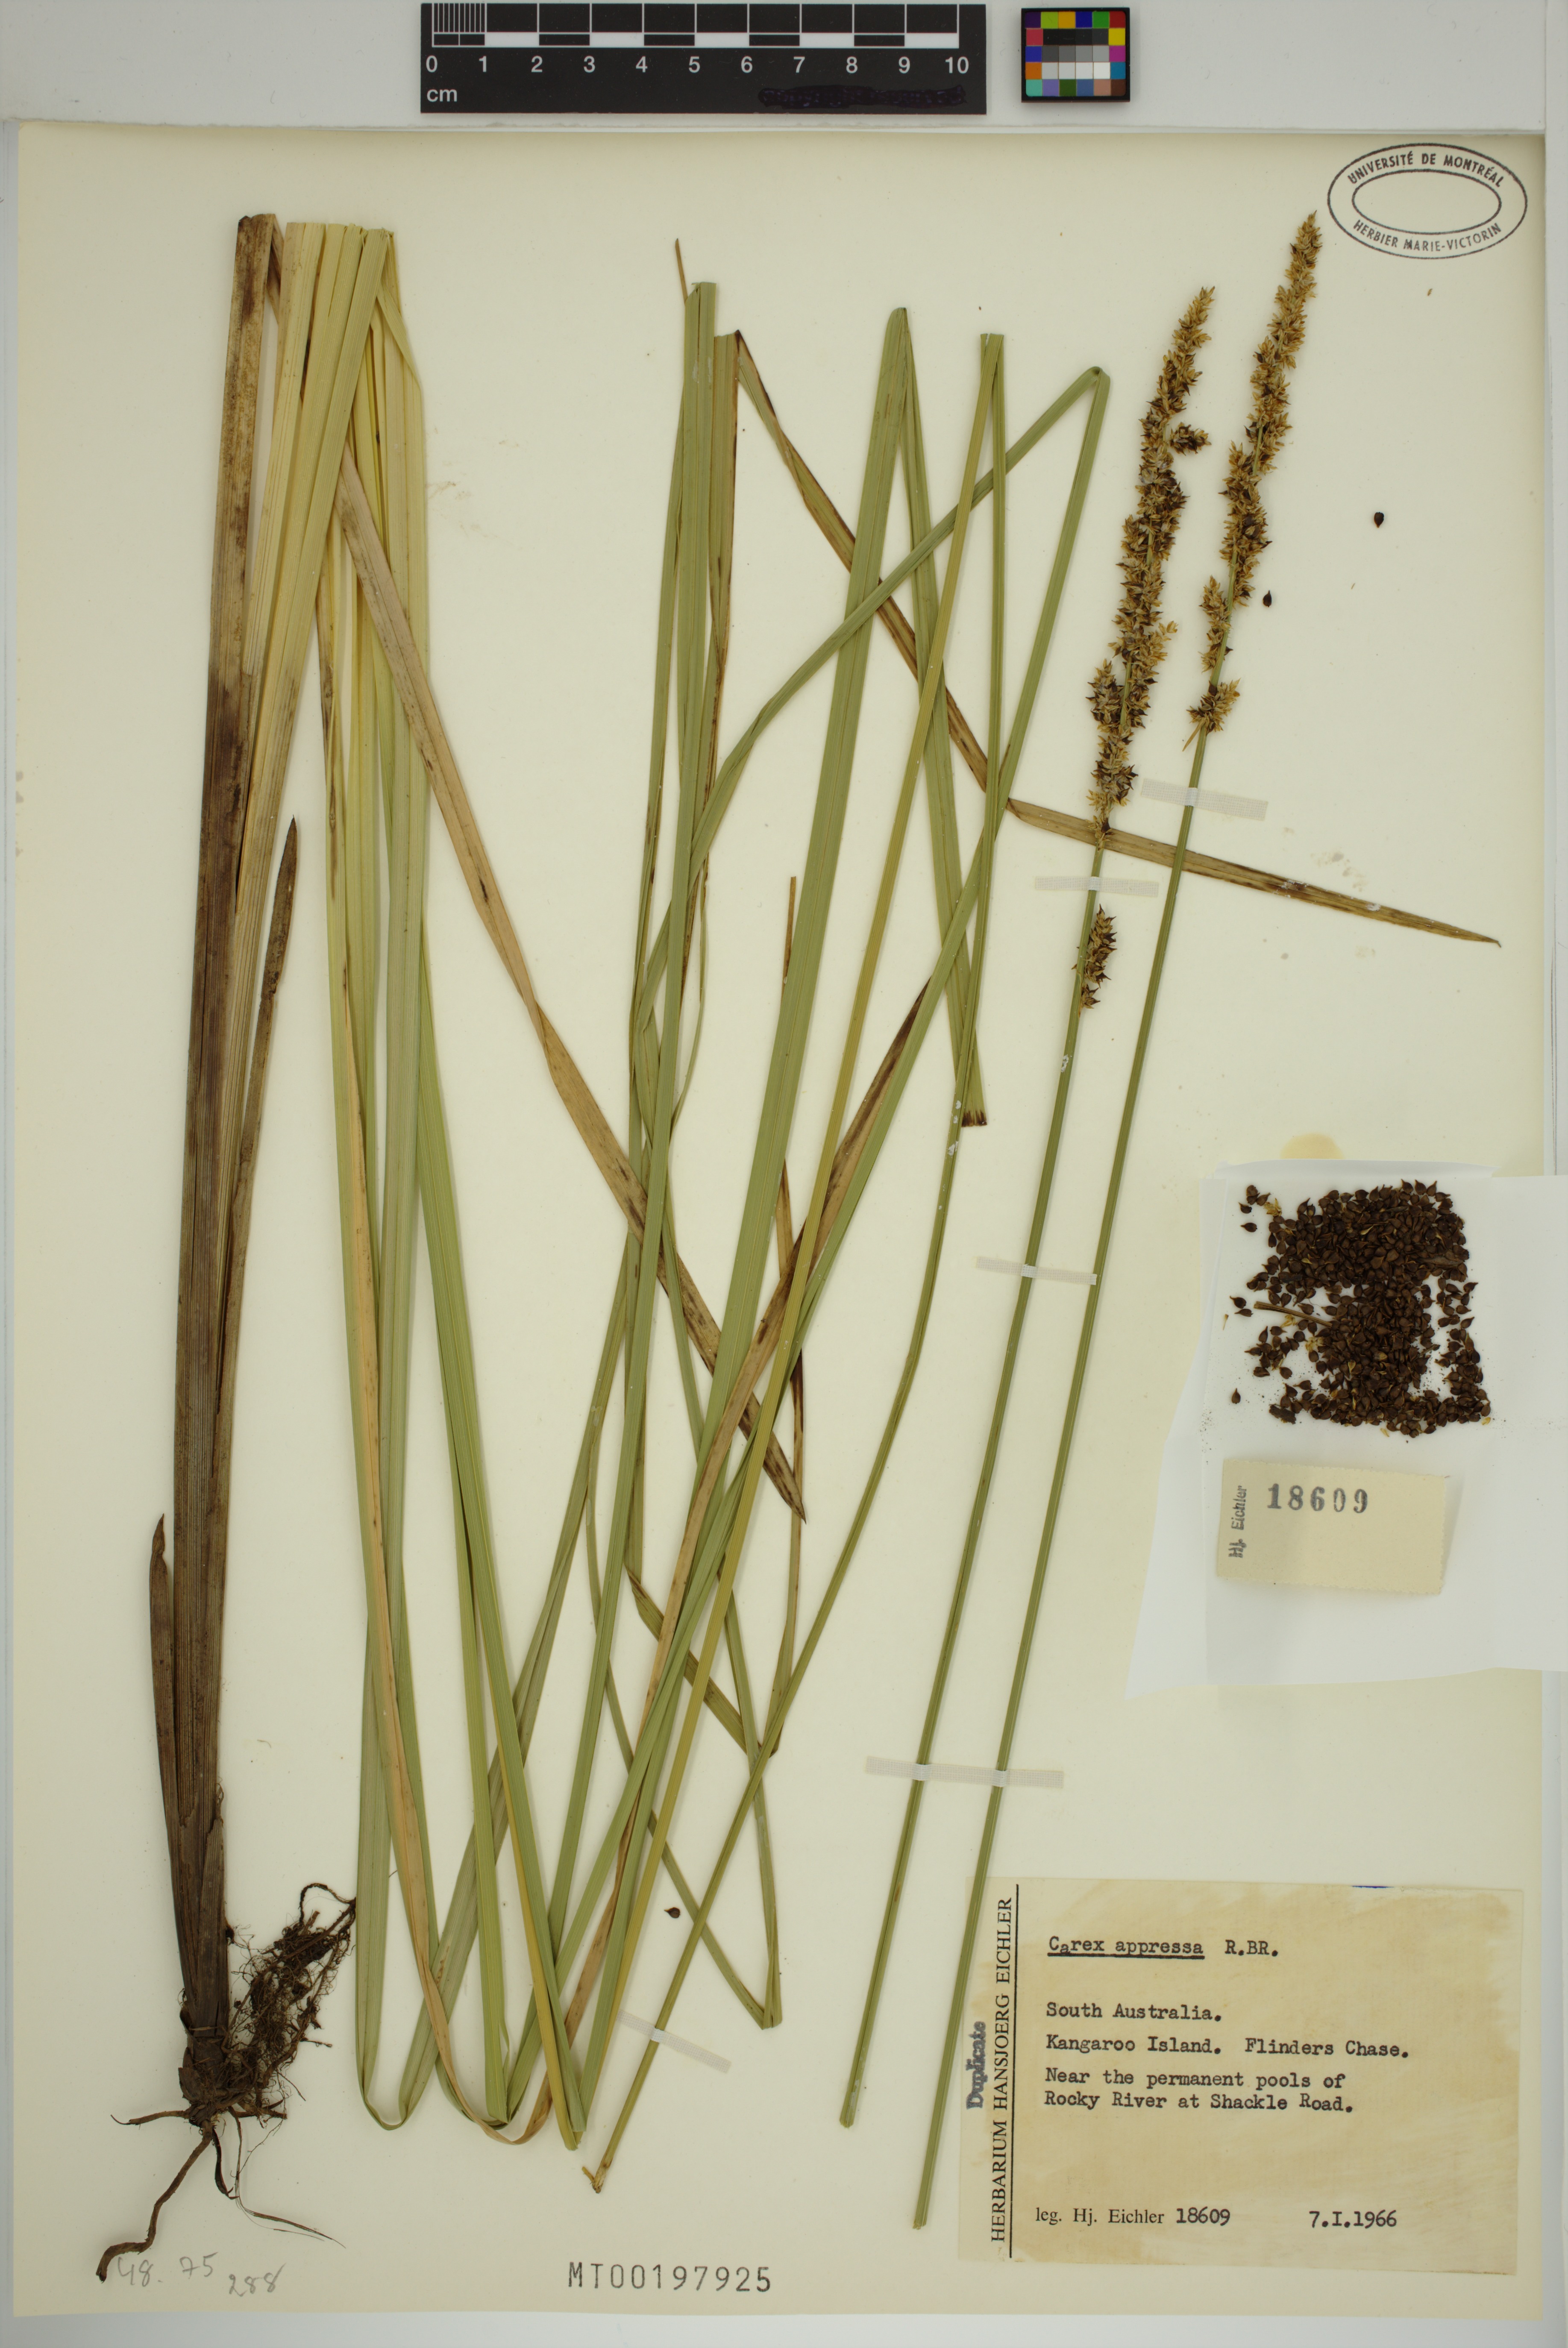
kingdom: Plantae
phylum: Tracheophyta
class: Liliopsida
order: Poales
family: Cyperaceae
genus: Carex
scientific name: Carex appressa
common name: Tussock sedge
